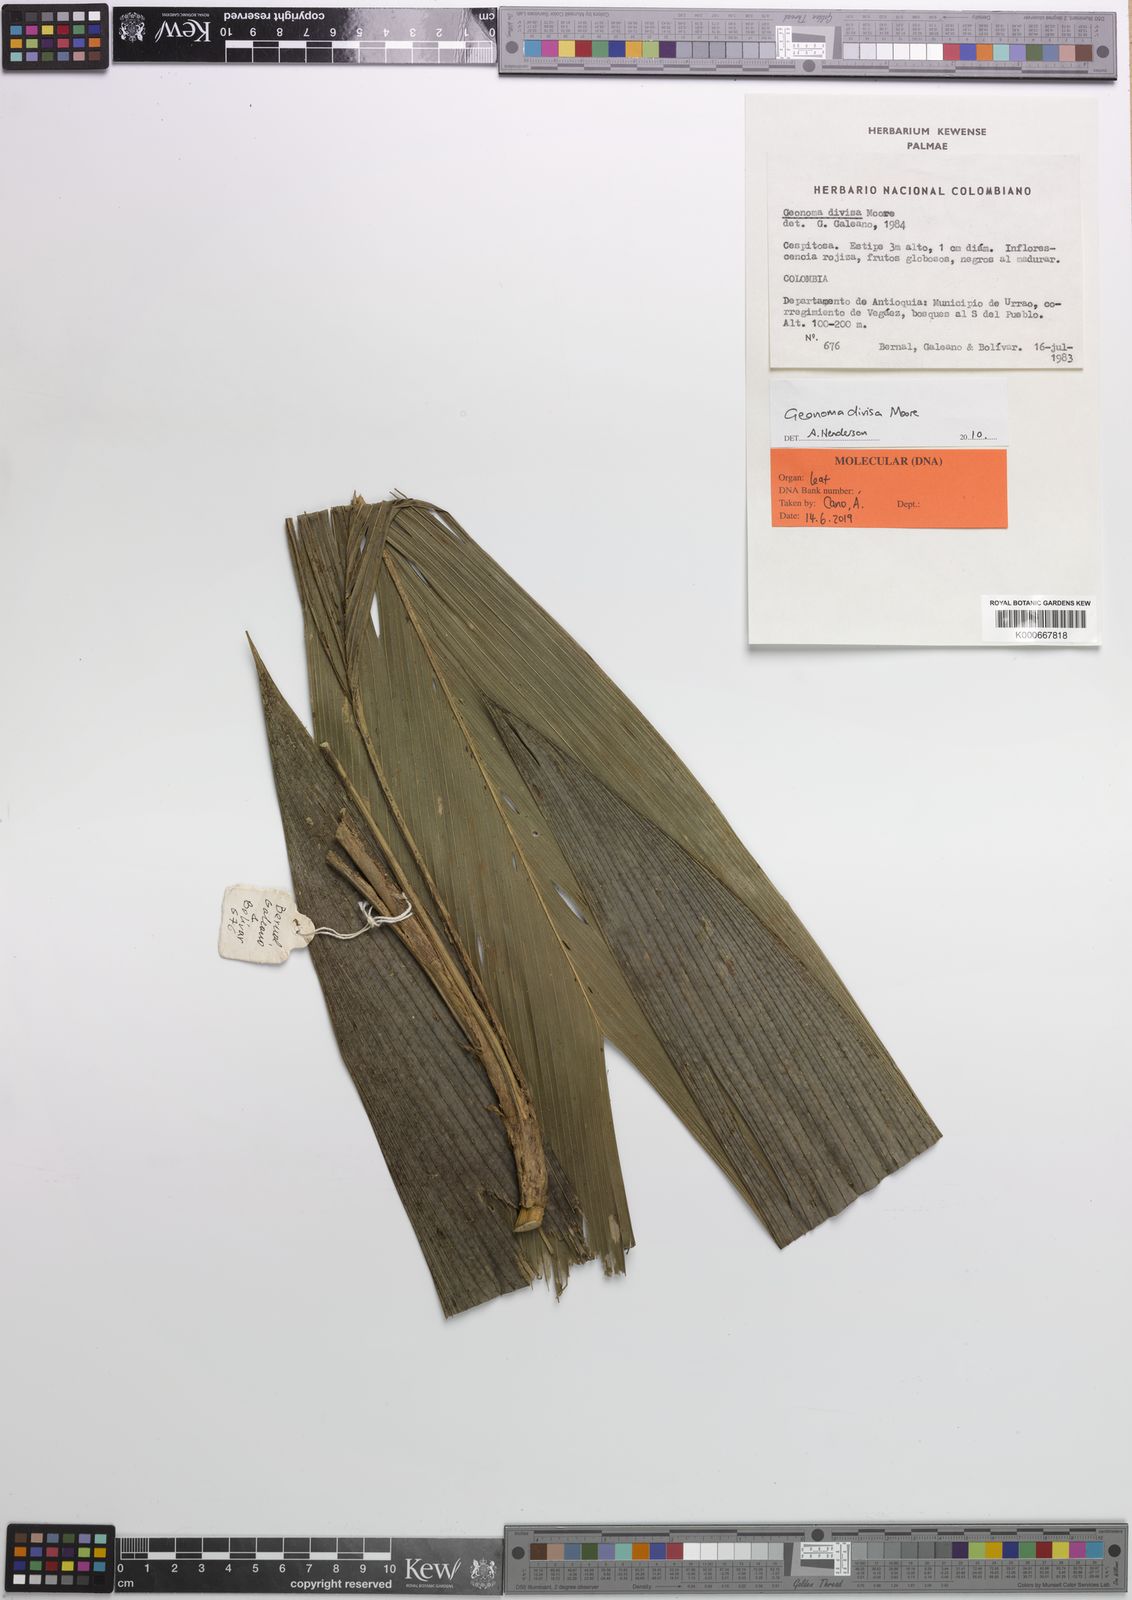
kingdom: Plantae
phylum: Tracheophyta
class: Liliopsida
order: Arecales
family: Arecaceae
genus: Geonoma
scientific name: Geonoma divisa
